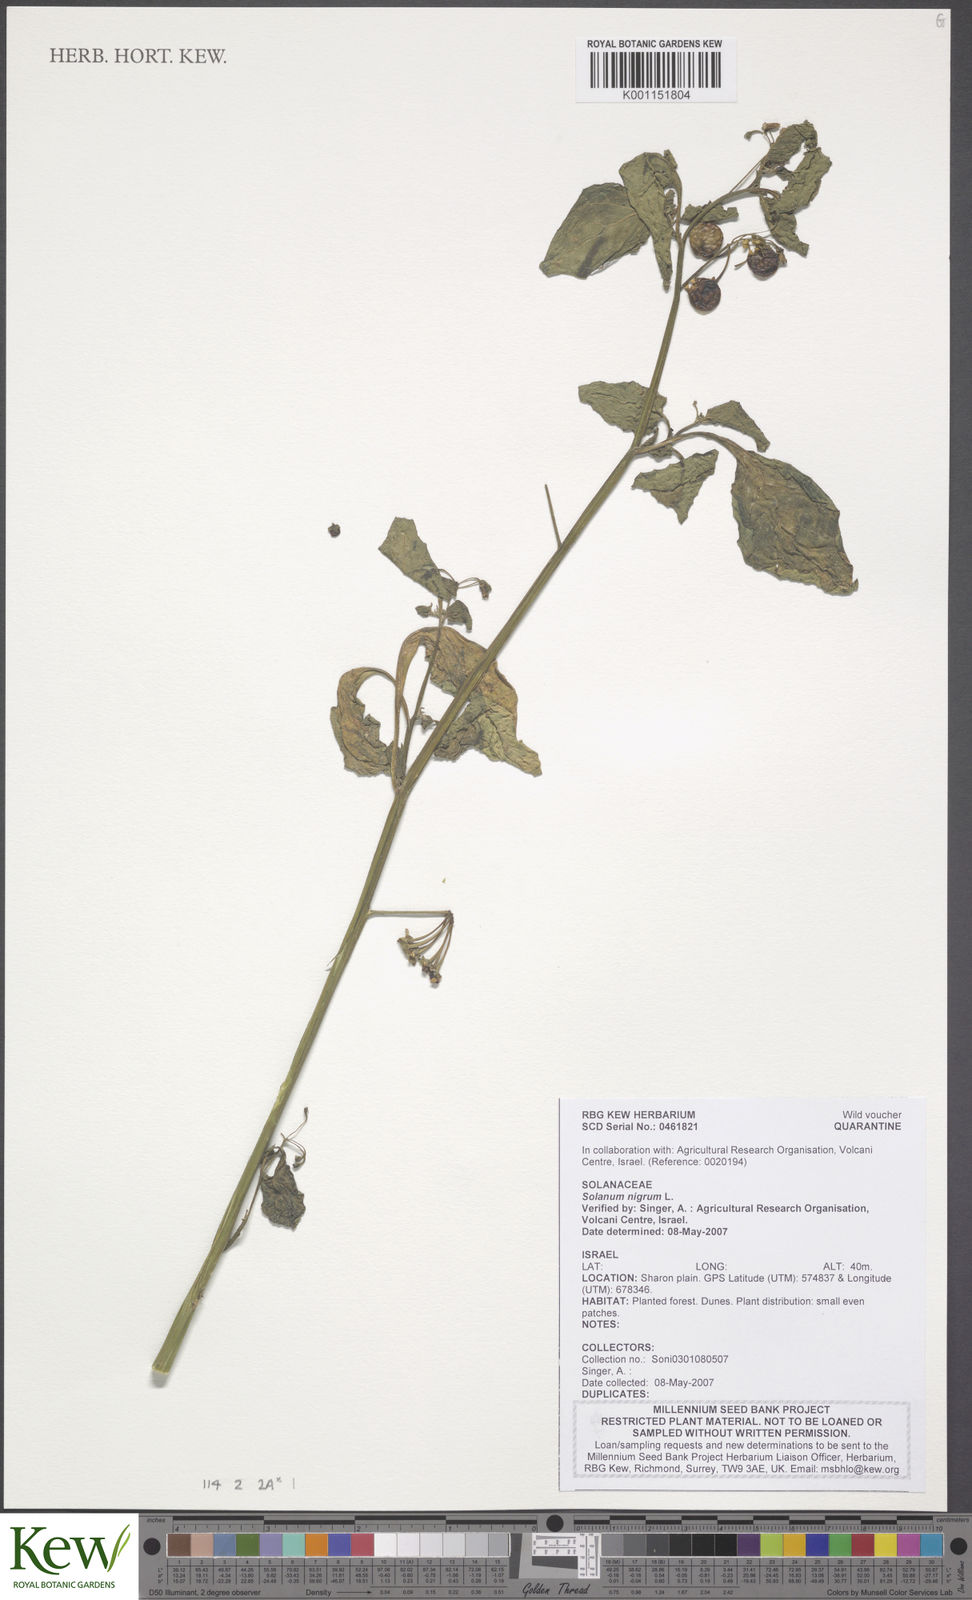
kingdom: Plantae
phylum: Tracheophyta
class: Magnoliopsida
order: Solanales
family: Solanaceae
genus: Solanum
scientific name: Solanum
